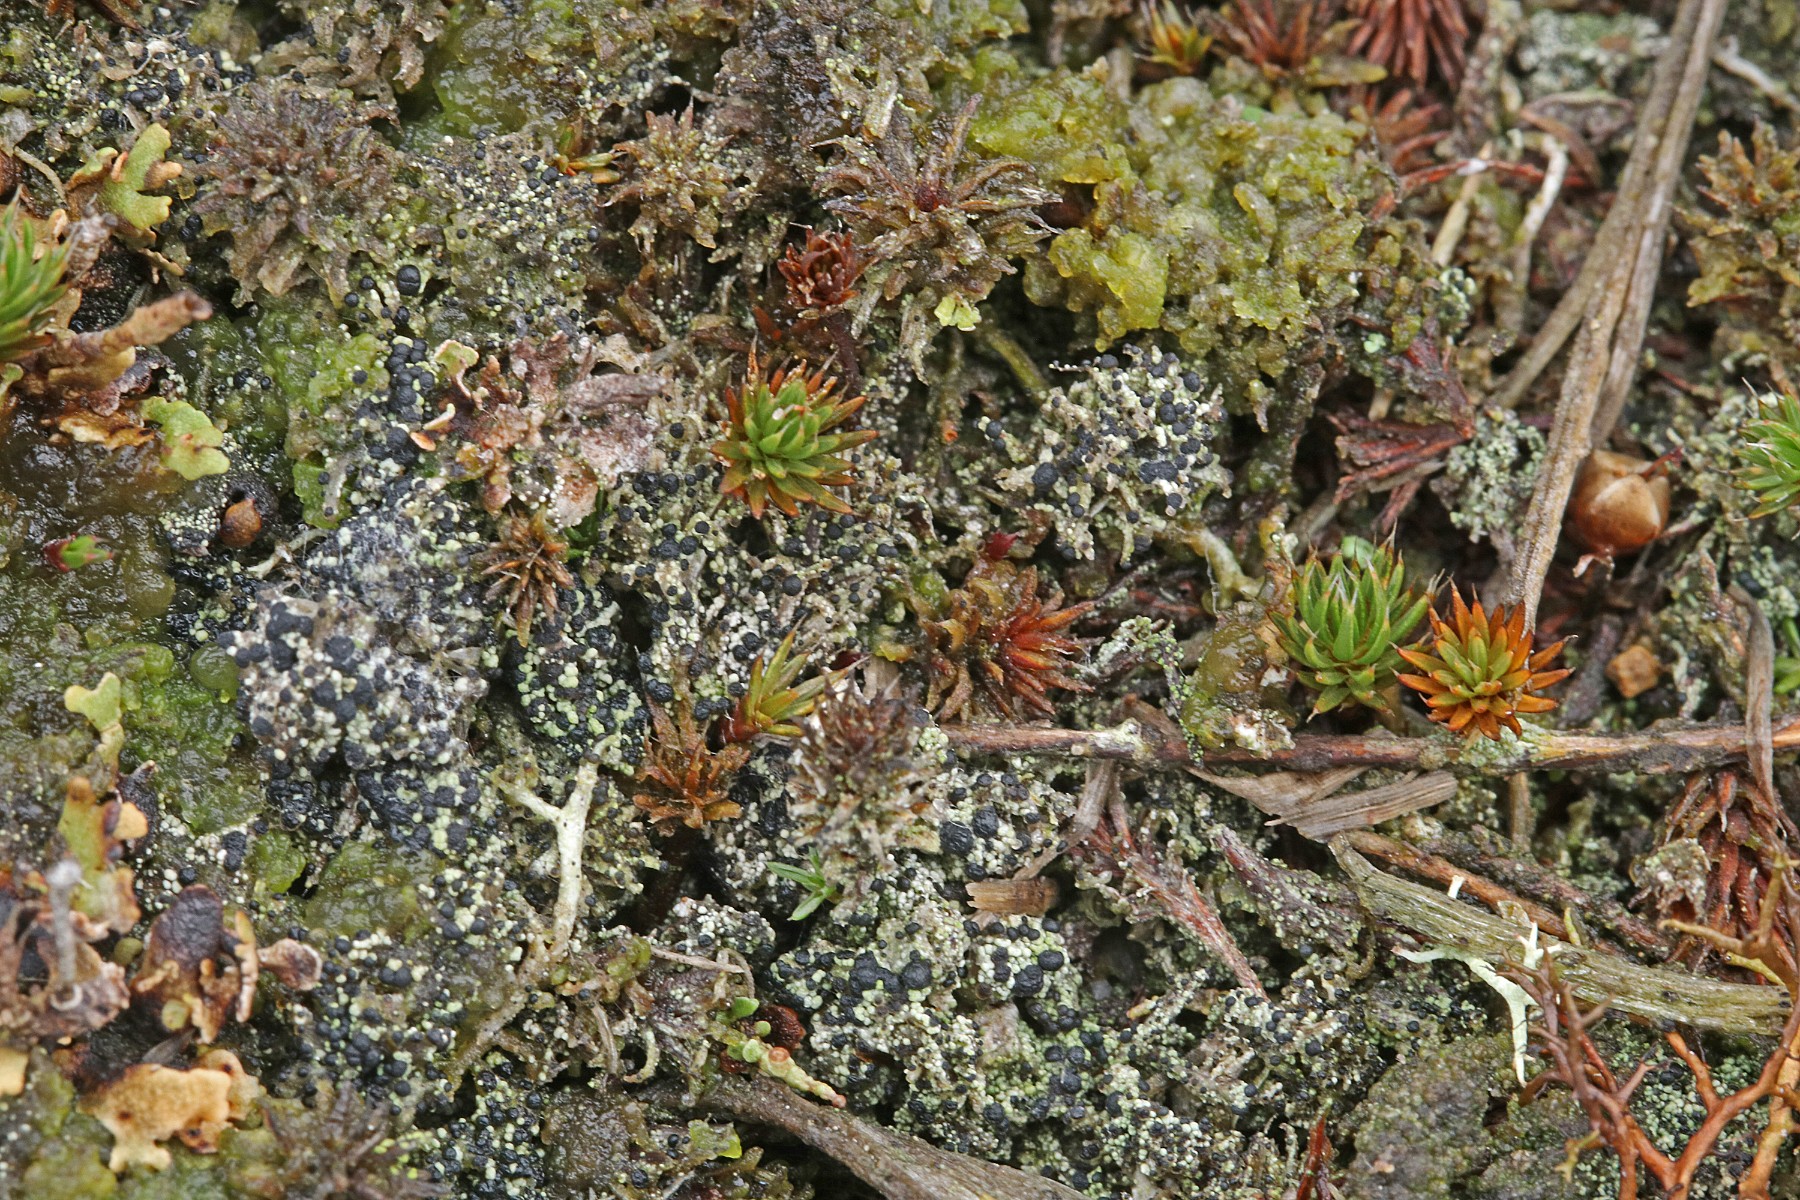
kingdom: Fungi
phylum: Ascomycota
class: Lecanoromycetes
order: Lecanorales
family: Byssolomataceae
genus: Micarea
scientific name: Micarea lignaria
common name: tørve-knaplav
